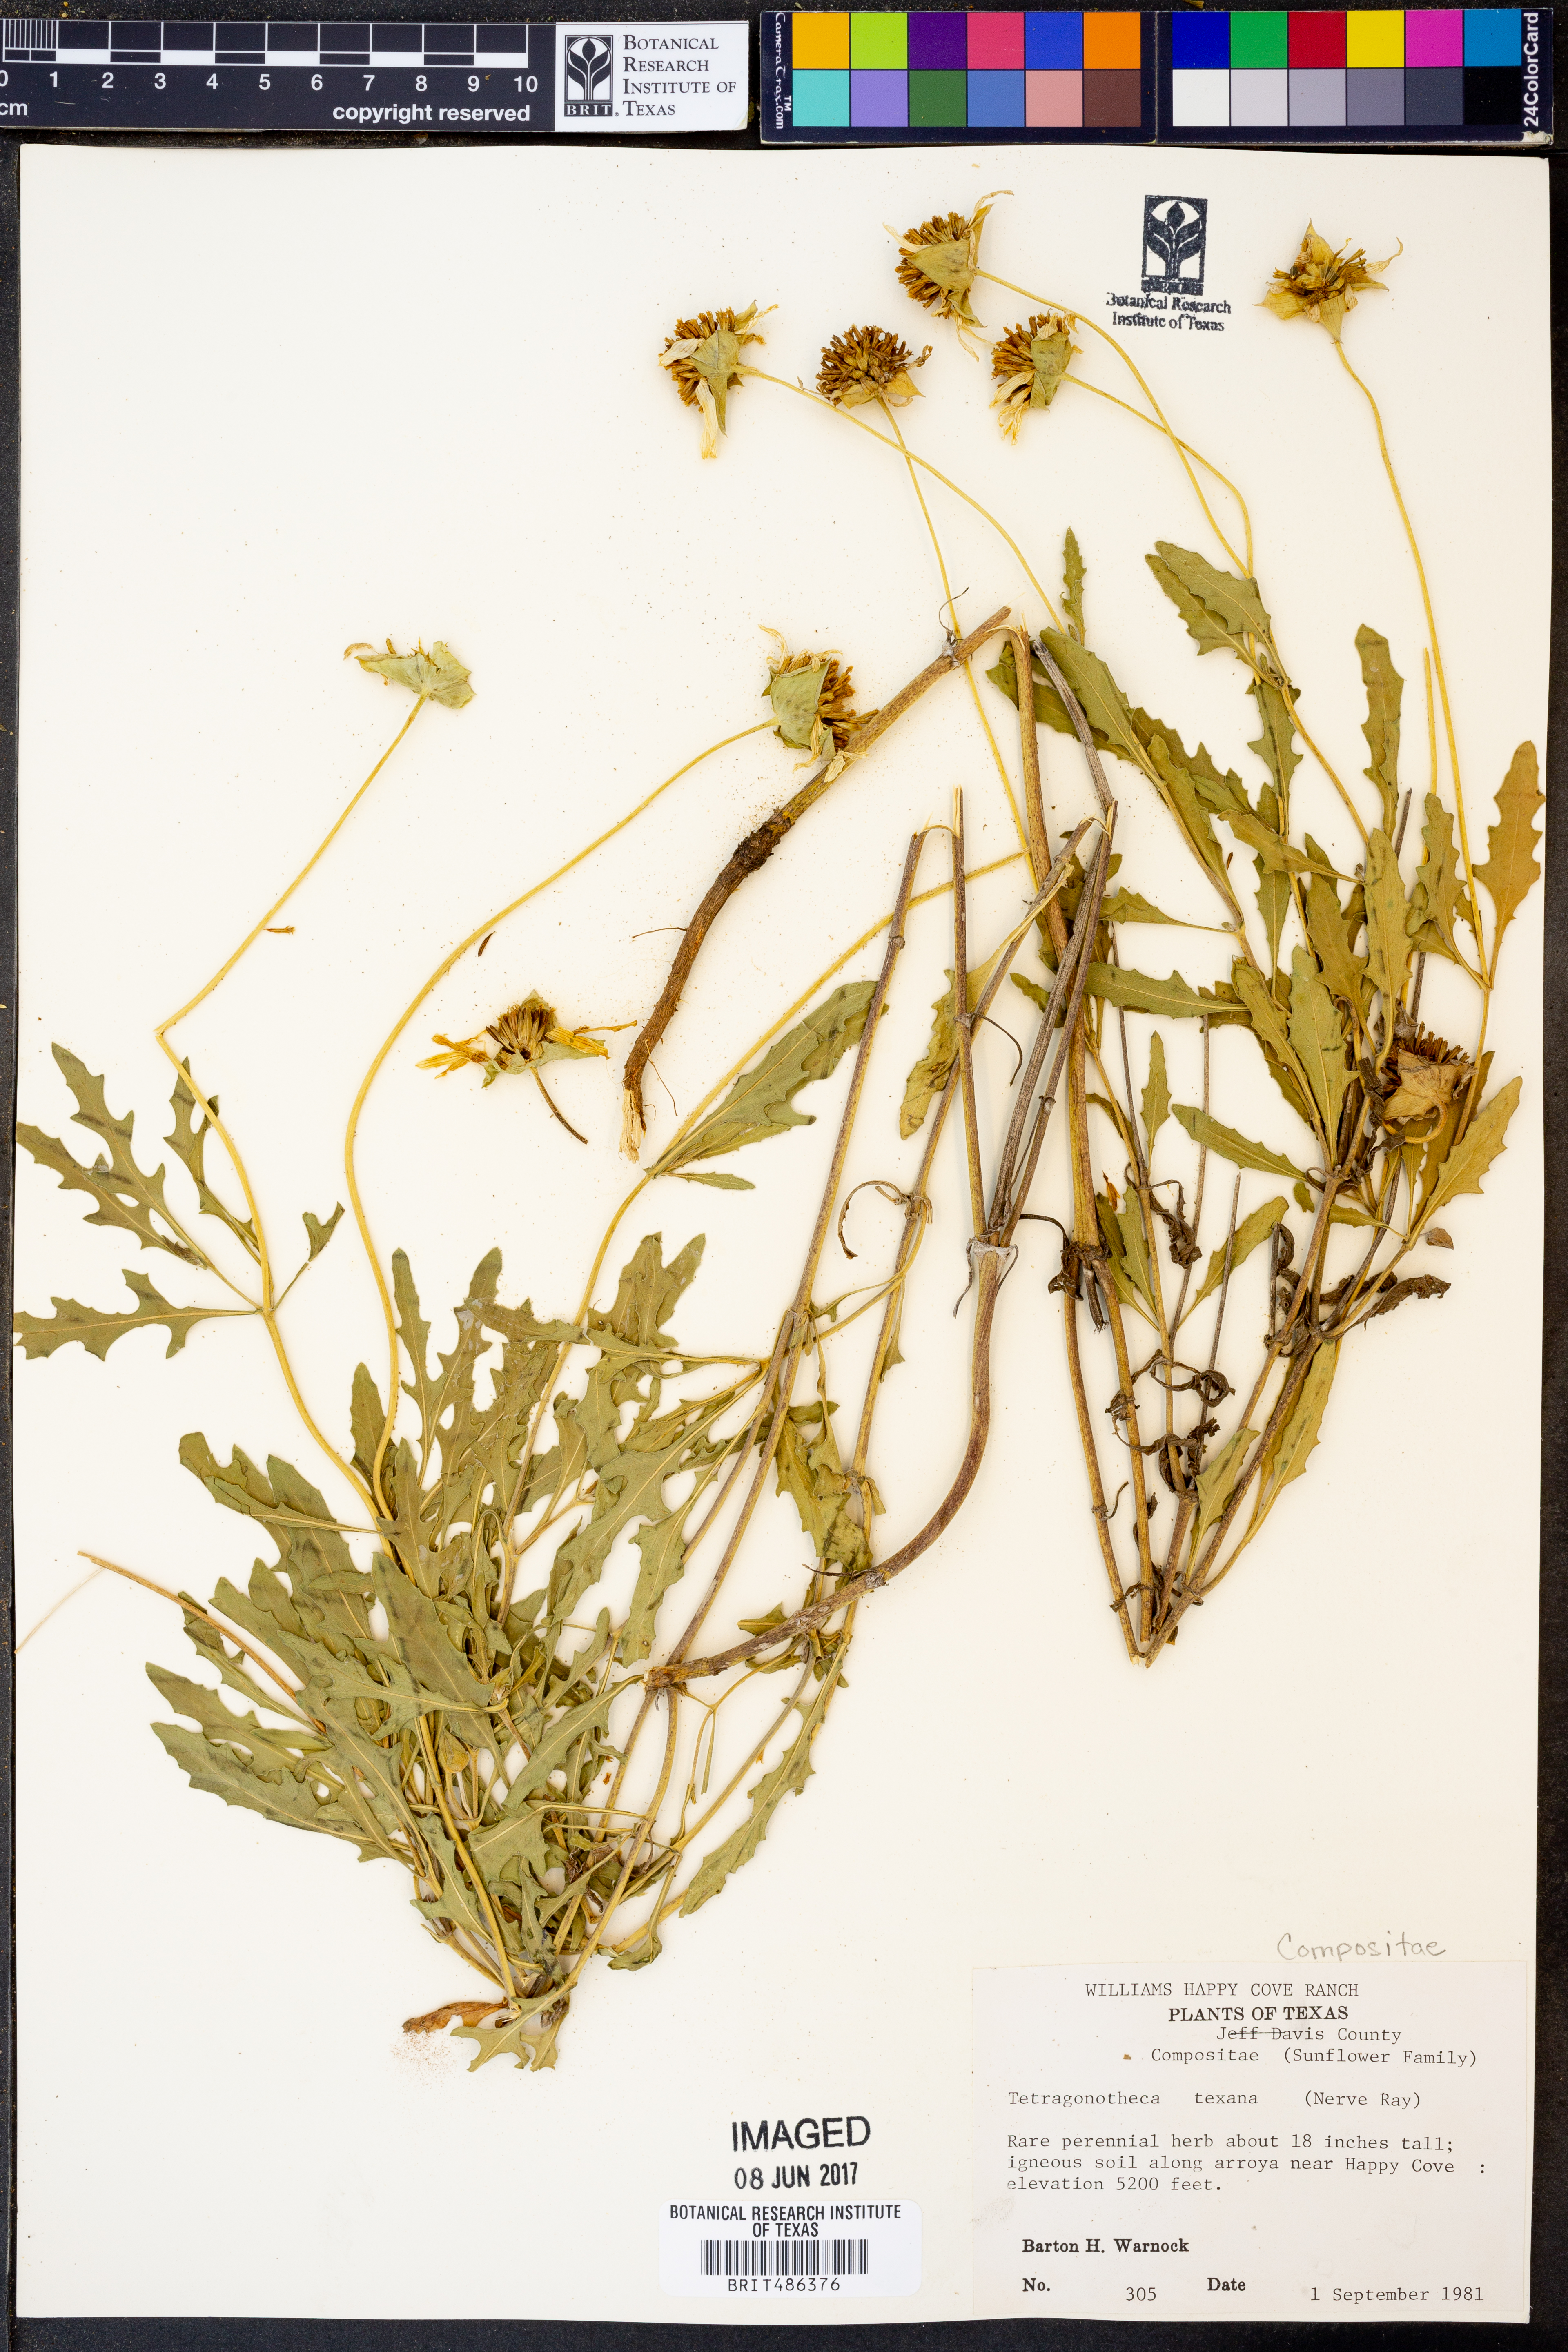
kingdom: Plantae
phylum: Tracheophyta
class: Magnoliopsida
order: Asterales
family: Asteraceae
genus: Tetragonotheca
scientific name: Tetragonotheca texana
